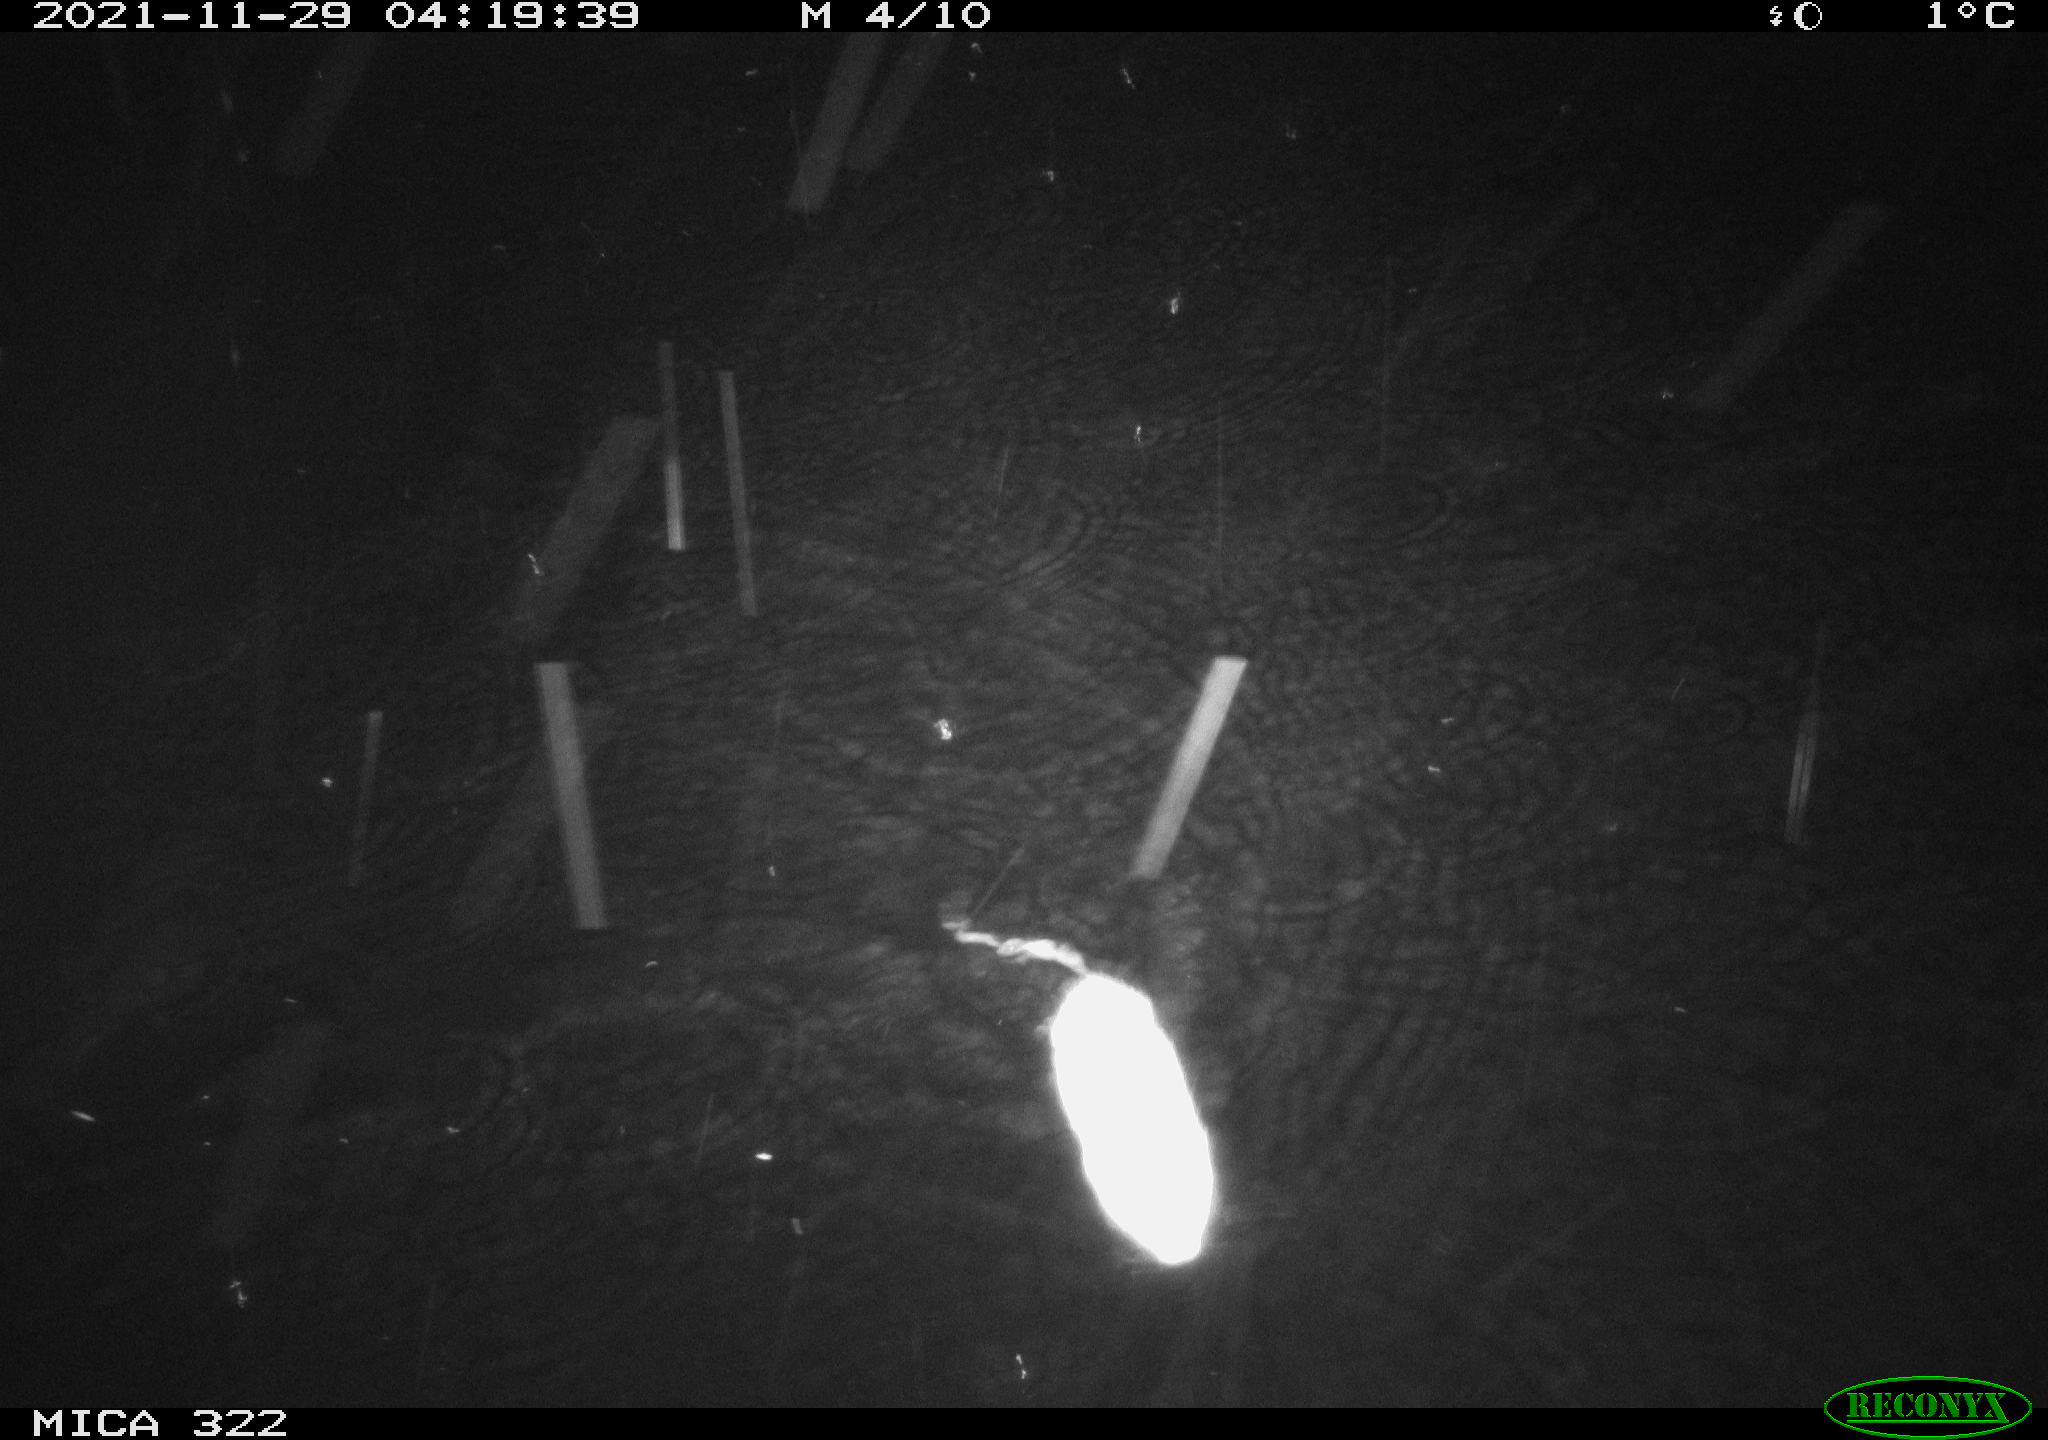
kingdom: Animalia
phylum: Chordata
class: Mammalia
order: Rodentia
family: Muridae
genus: Rattus
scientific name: Rattus norvegicus
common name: Brown rat
